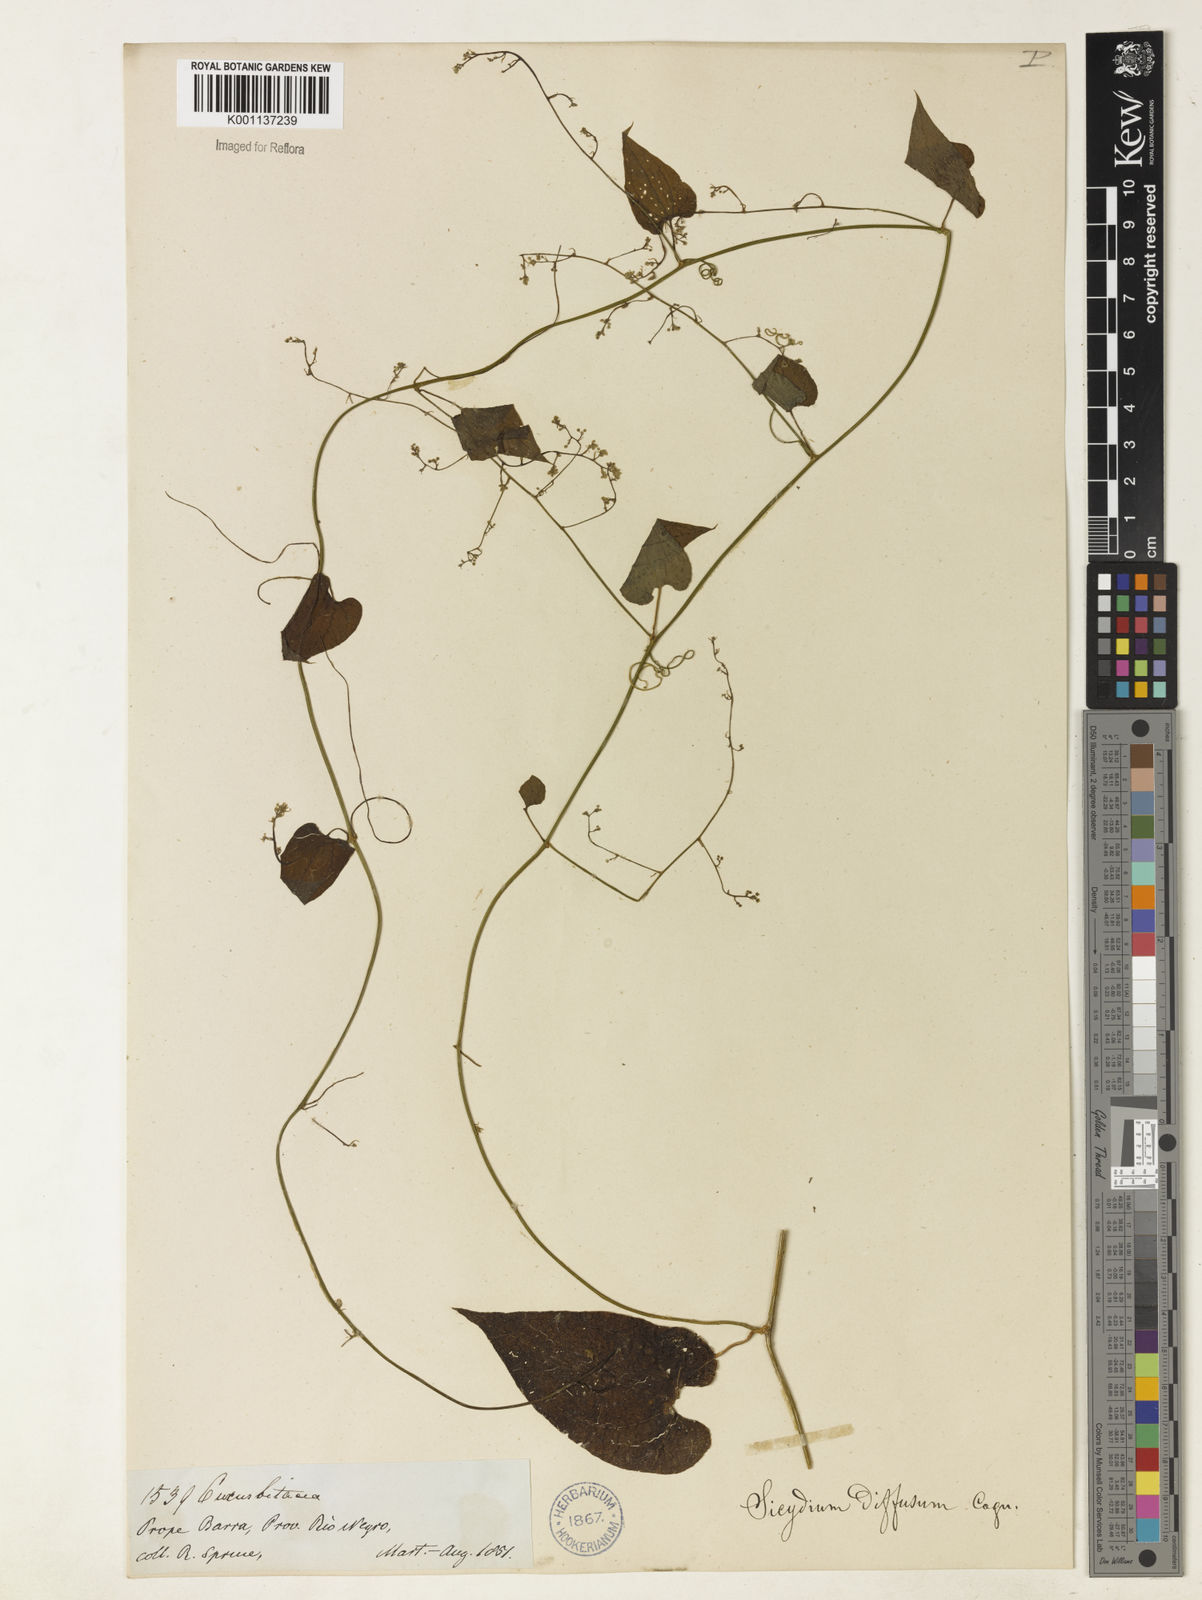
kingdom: Plantae
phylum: Tracheophyta
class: Magnoliopsida
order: Cucurbitales
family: Cucurbitaceae
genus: Sicydium
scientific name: Sicydium diffusum
